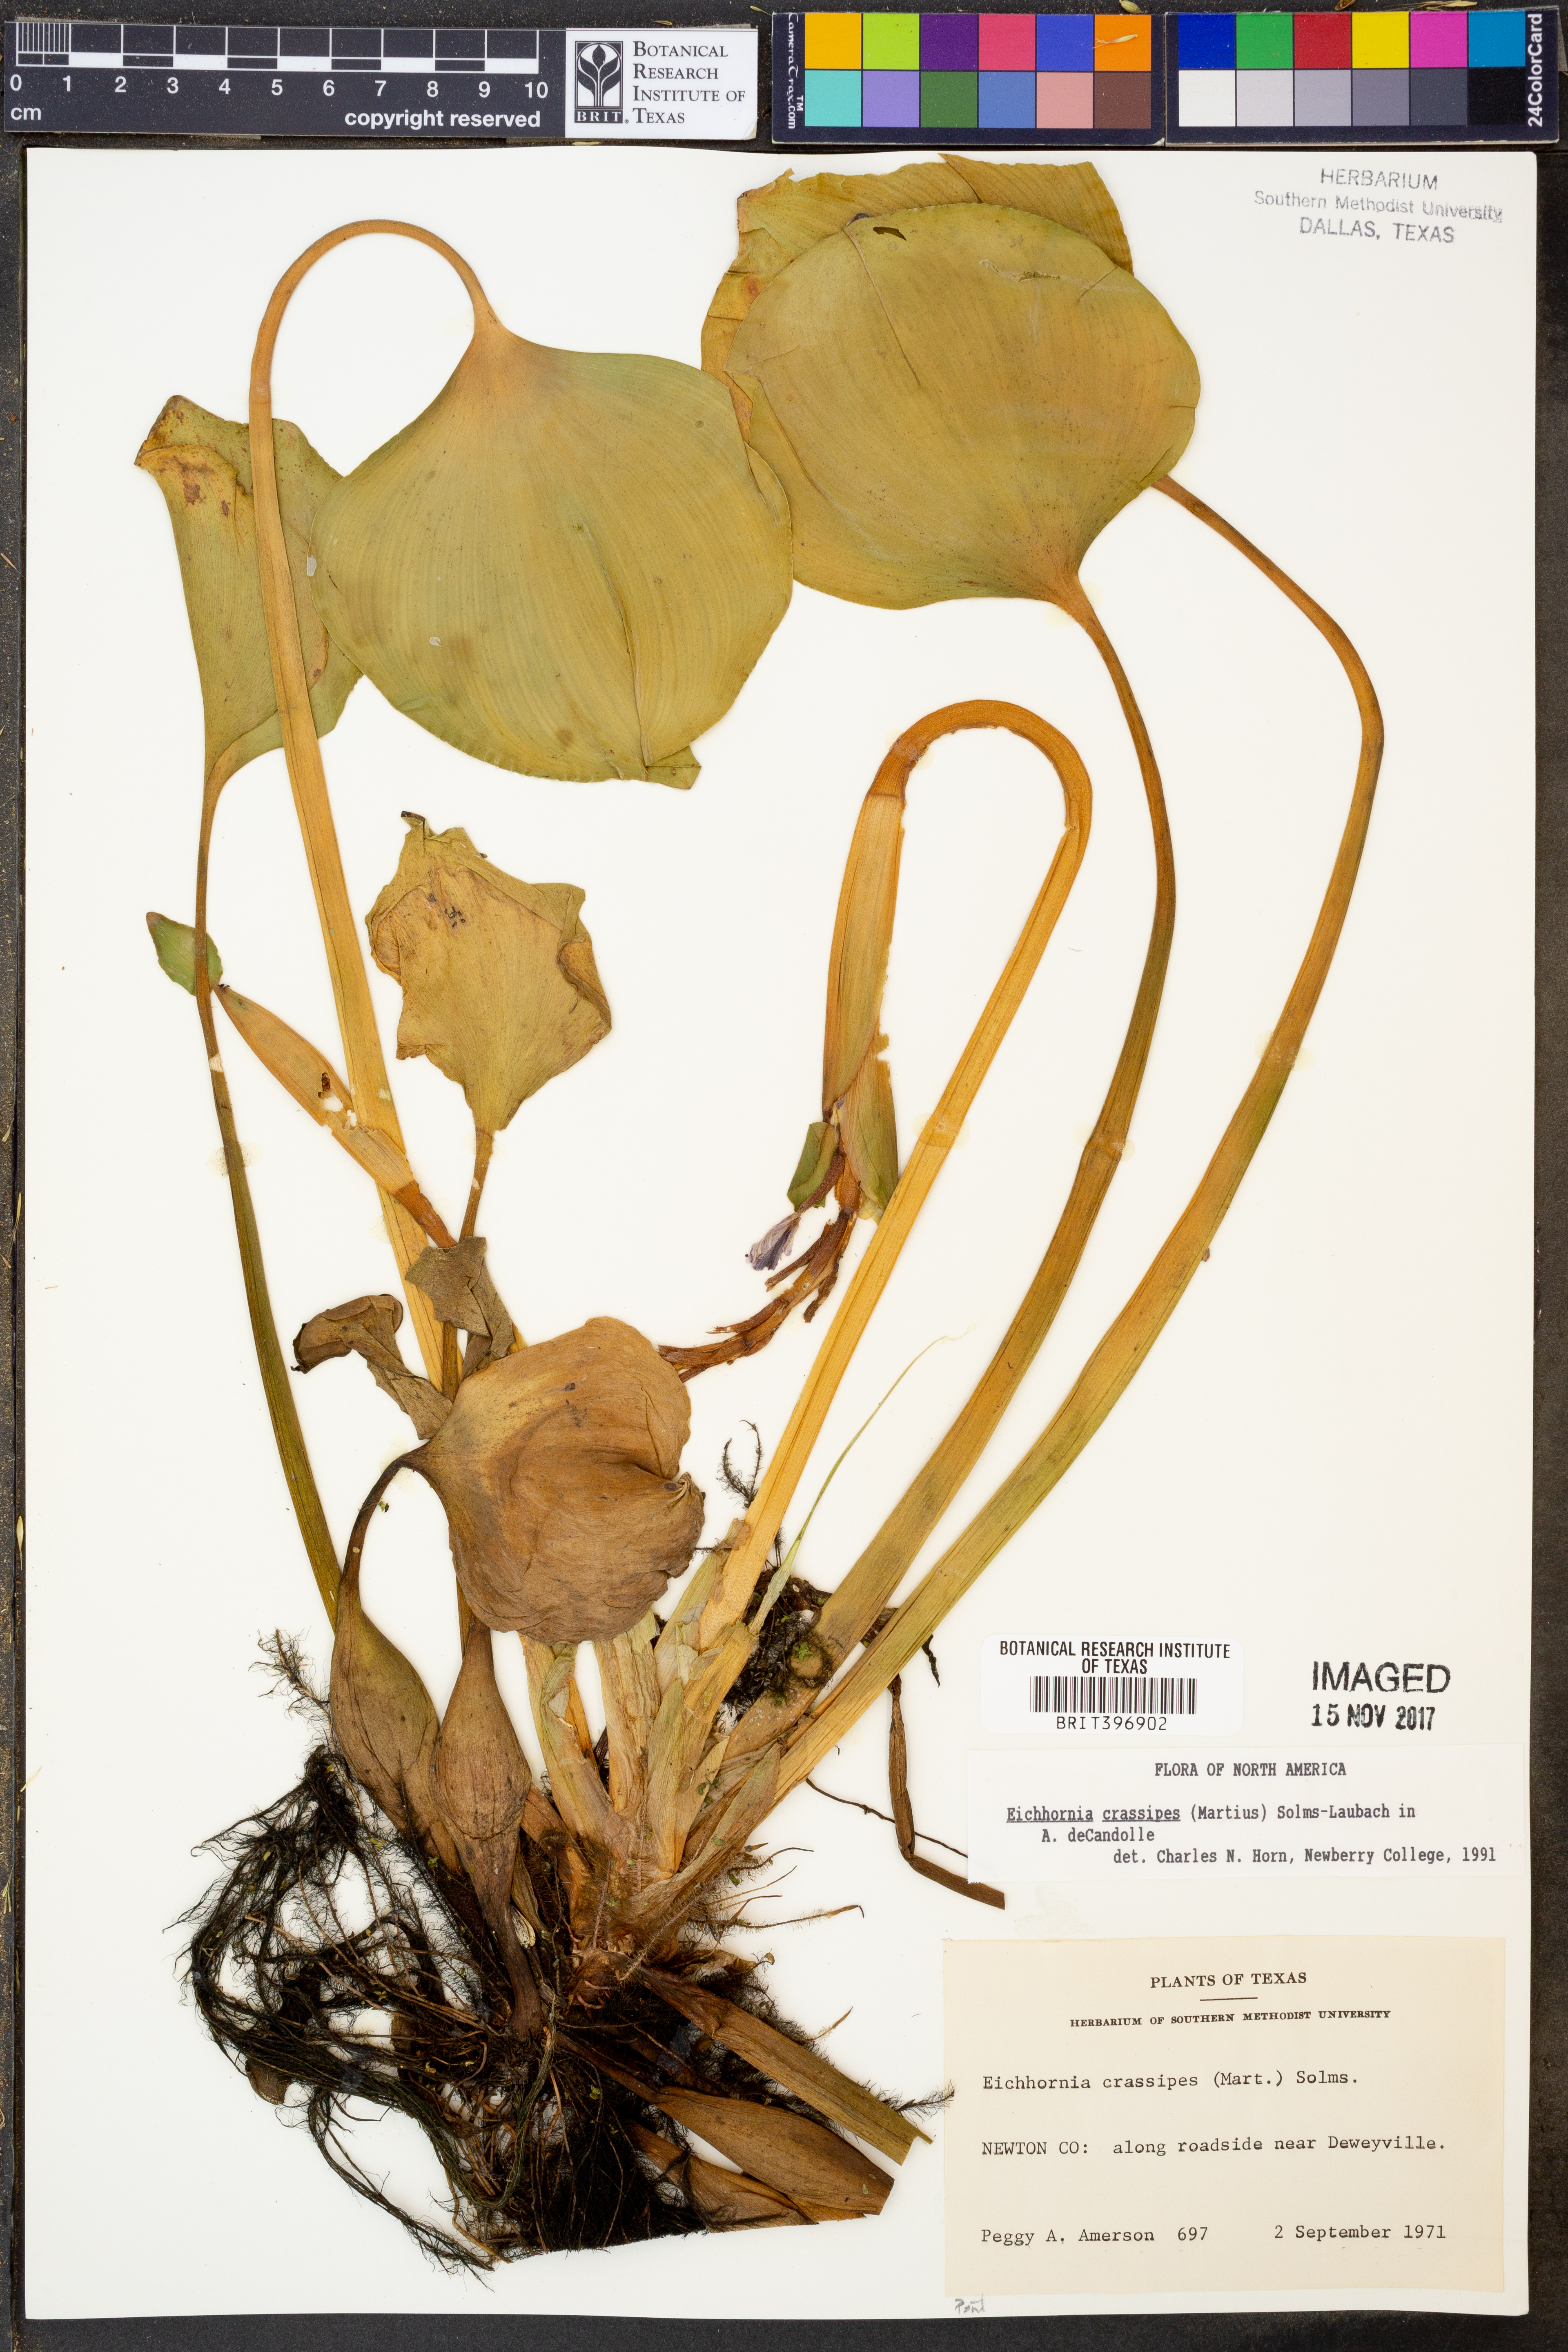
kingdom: Plantae
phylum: Tracheophyta
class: Liliopsida
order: Commelinales
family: Pontederiaceae
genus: Pontederia
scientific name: Pontederia crassipes
